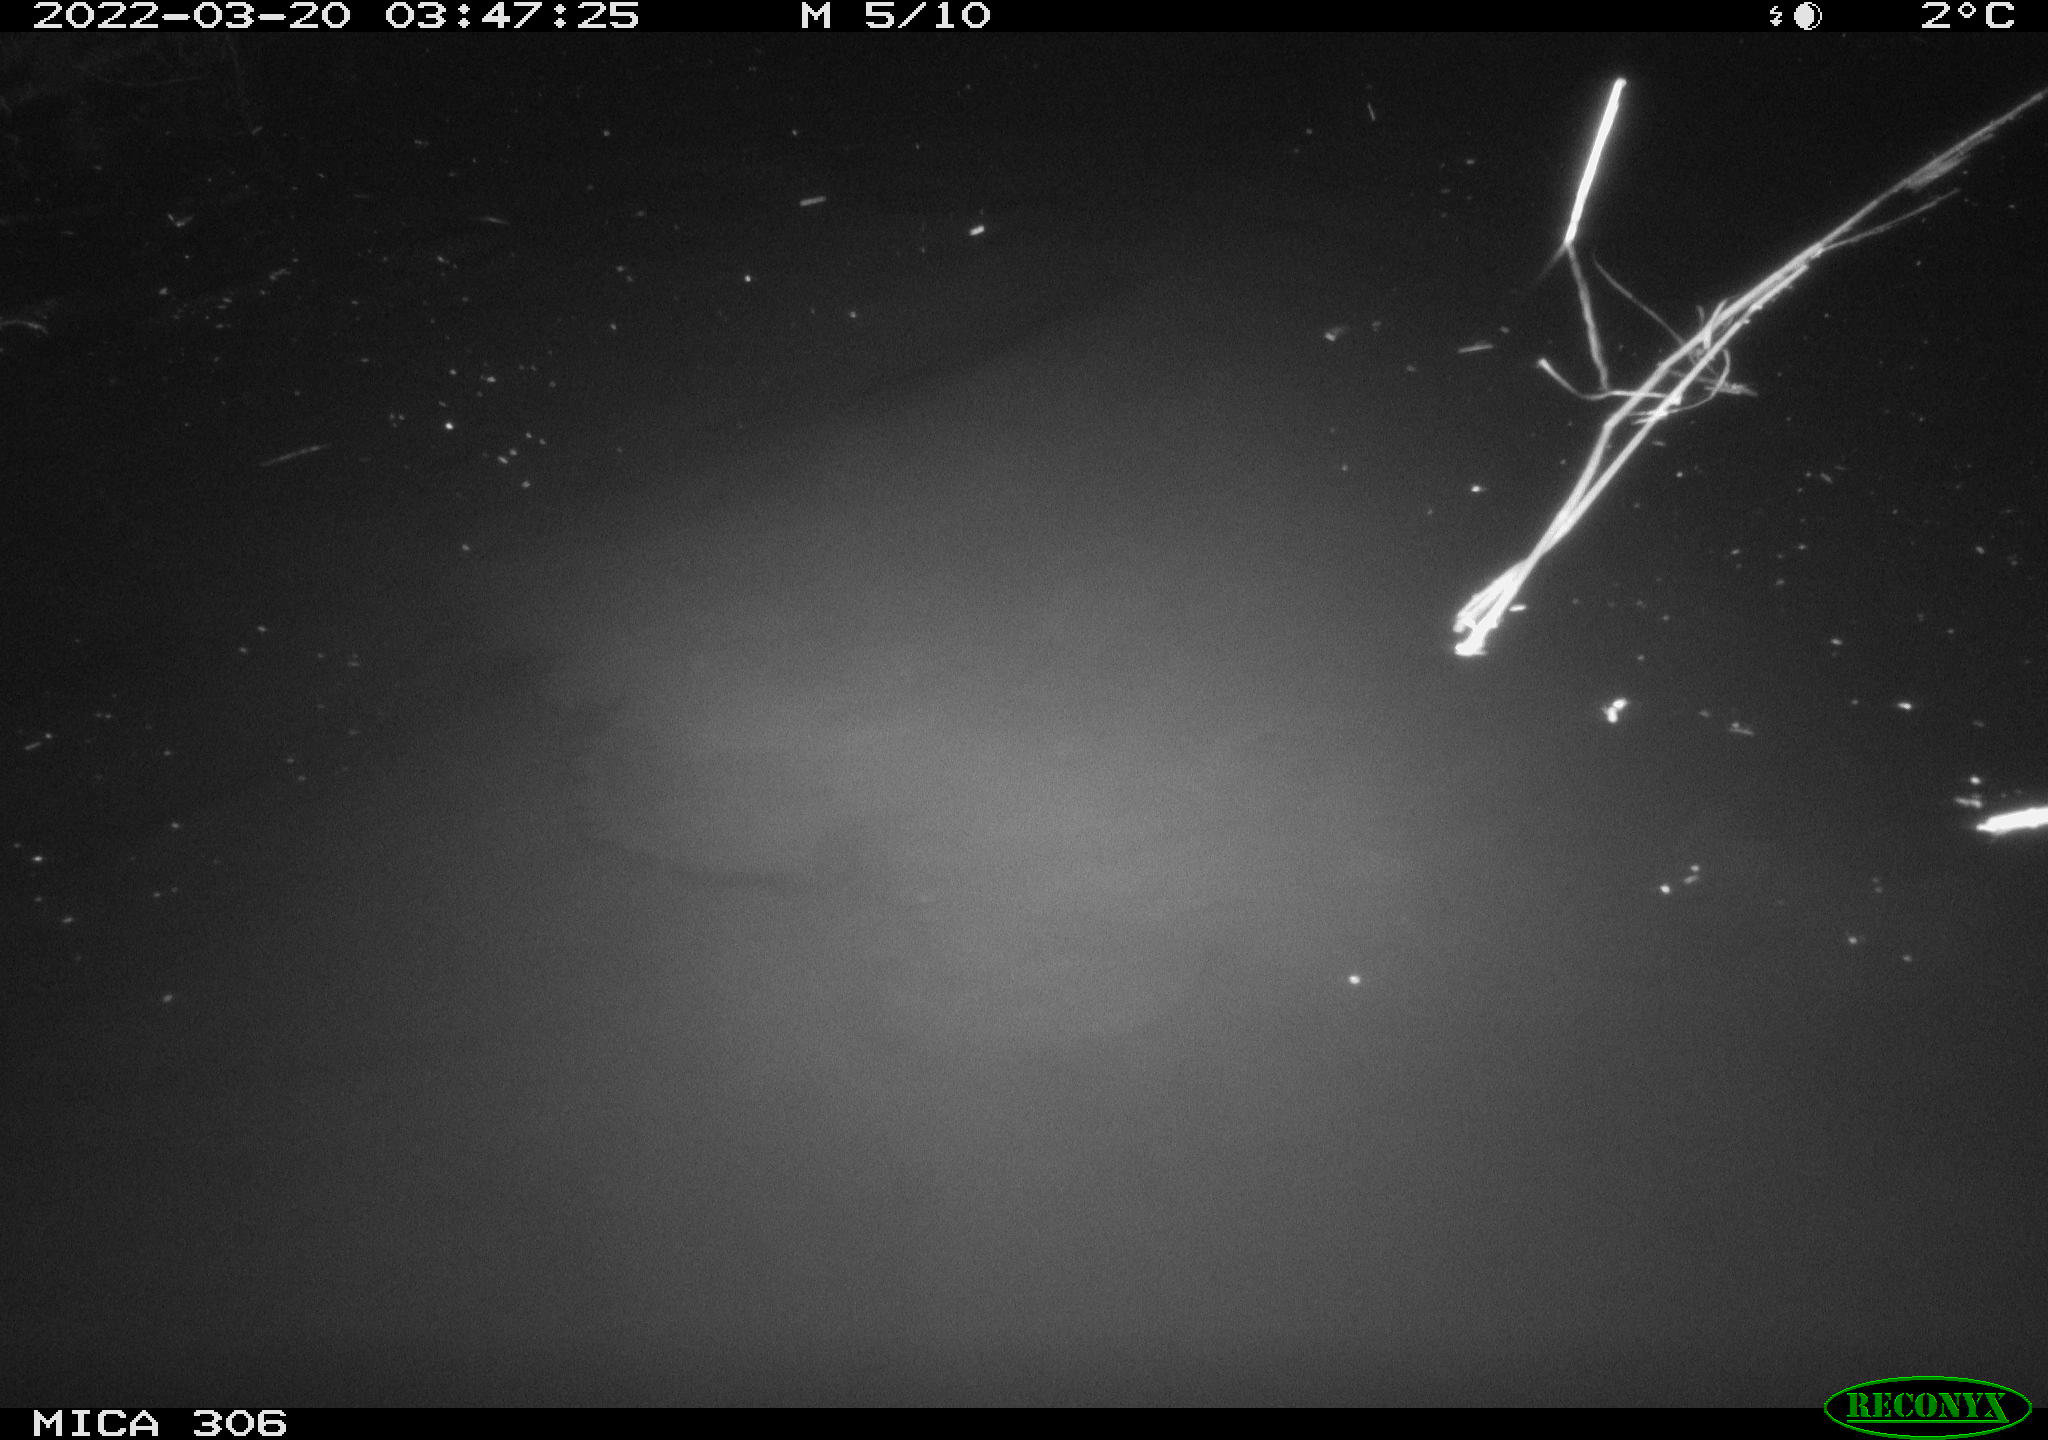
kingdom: Animalia
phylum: Chordata
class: Aves
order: Anseriformes
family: Anatidae
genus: Anas
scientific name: Anas
